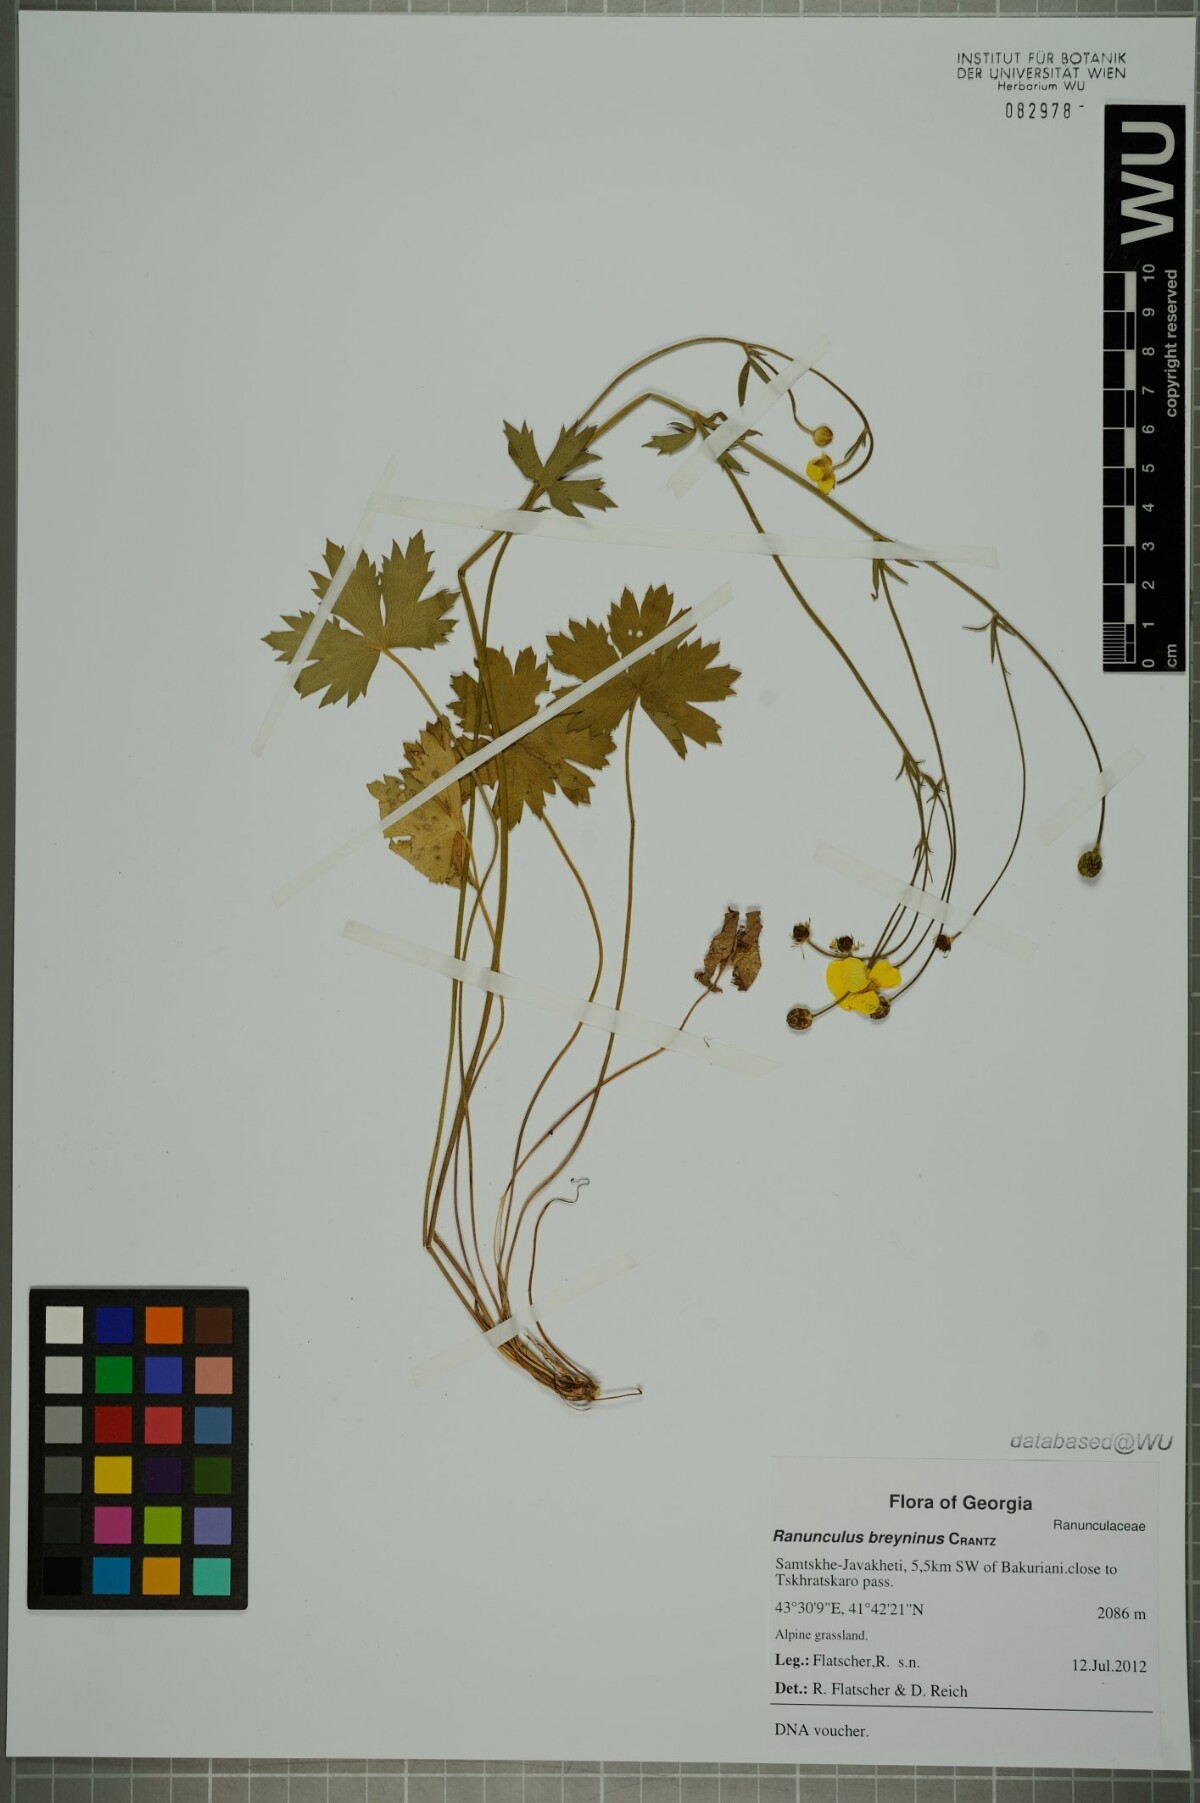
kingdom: Plantae
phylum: Tracheophyta
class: Magnoliopsida
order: Ranunculales
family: Ranunculaceae
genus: Ranunculus
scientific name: Ranunculus breyninus
